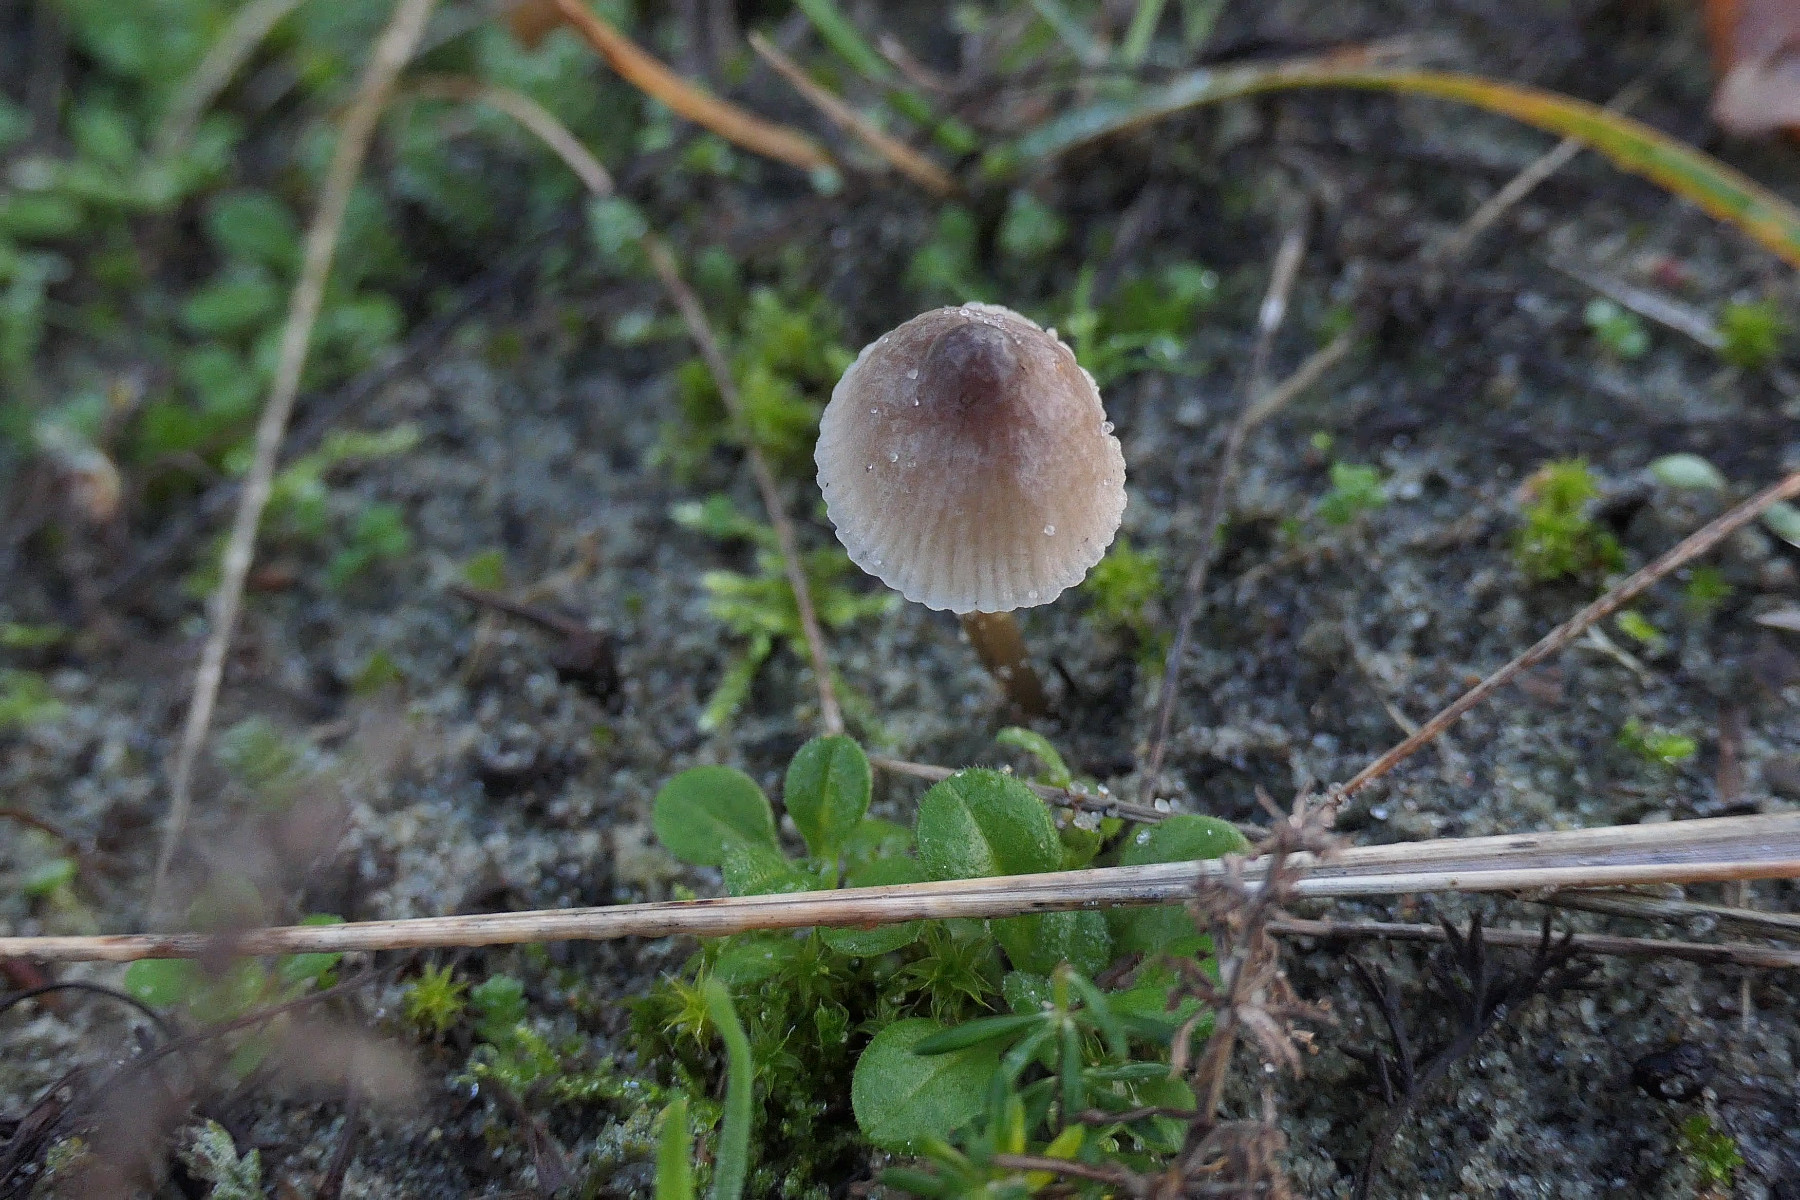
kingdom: Fungi
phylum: Basidiomycota
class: Agaricomycetes
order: Agaricales
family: Mycenaceae
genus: Mycena
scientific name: Mycena epipterygia
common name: gulstokket huesvamp
